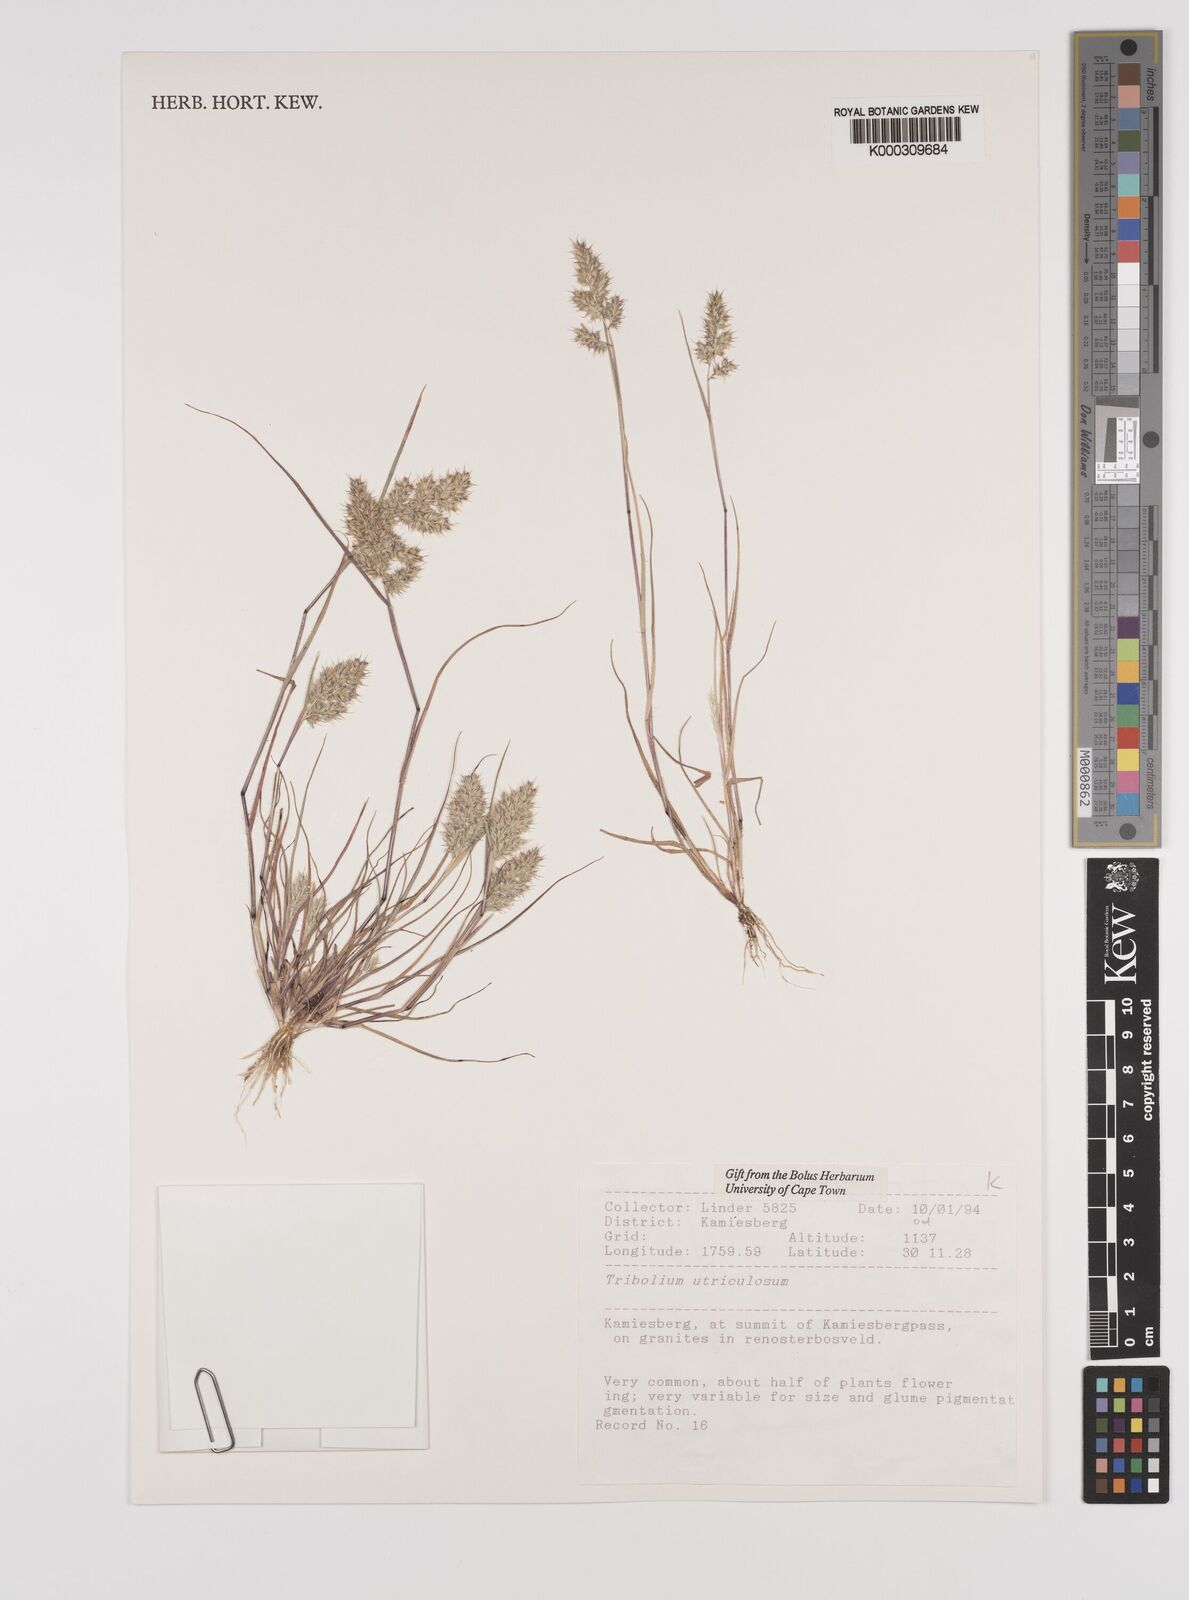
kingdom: Plantae
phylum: Tracheophyta
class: Liliopsida
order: Poales
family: Poaceae
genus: Tribolium
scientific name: Tribolium utriculosum
